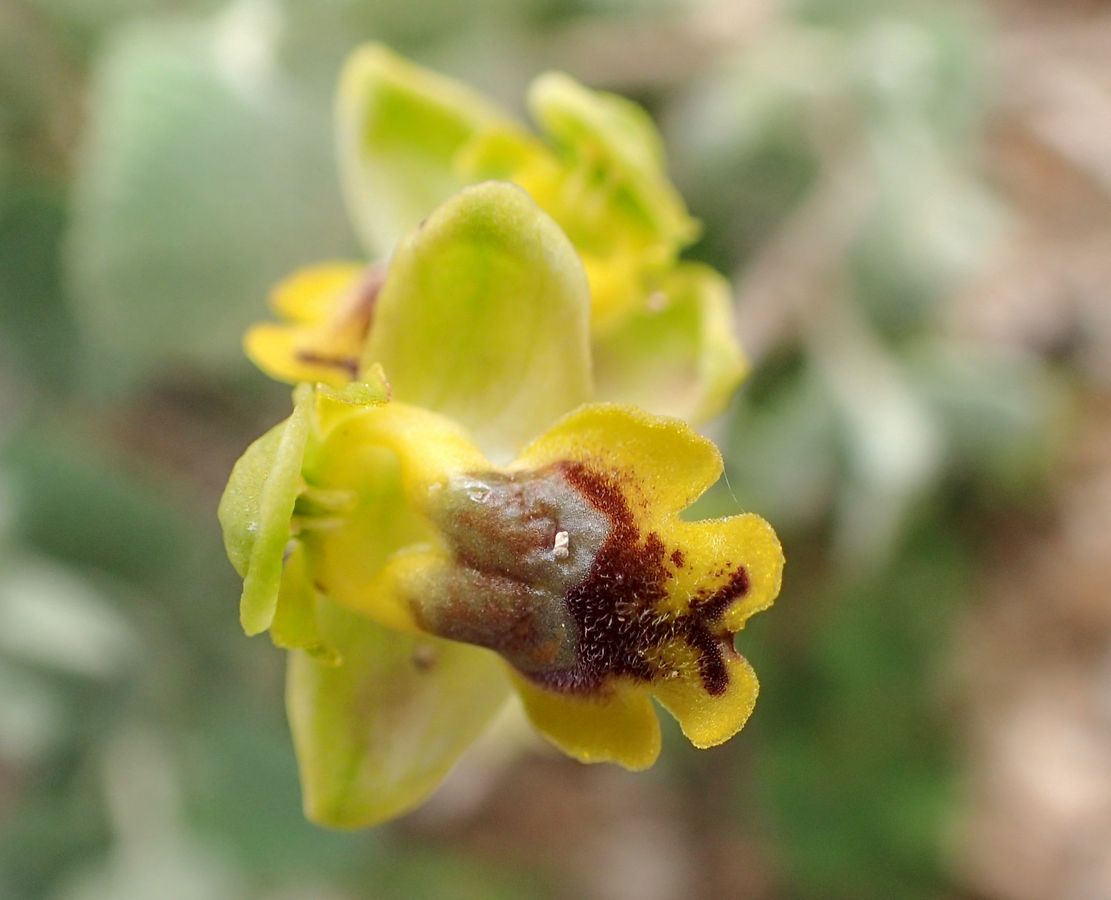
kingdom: Plantae
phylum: Tracheophyta
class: Liliopsida
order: Asparagales
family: Orchidaceae
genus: Ophrys
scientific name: Ophrys lutea
